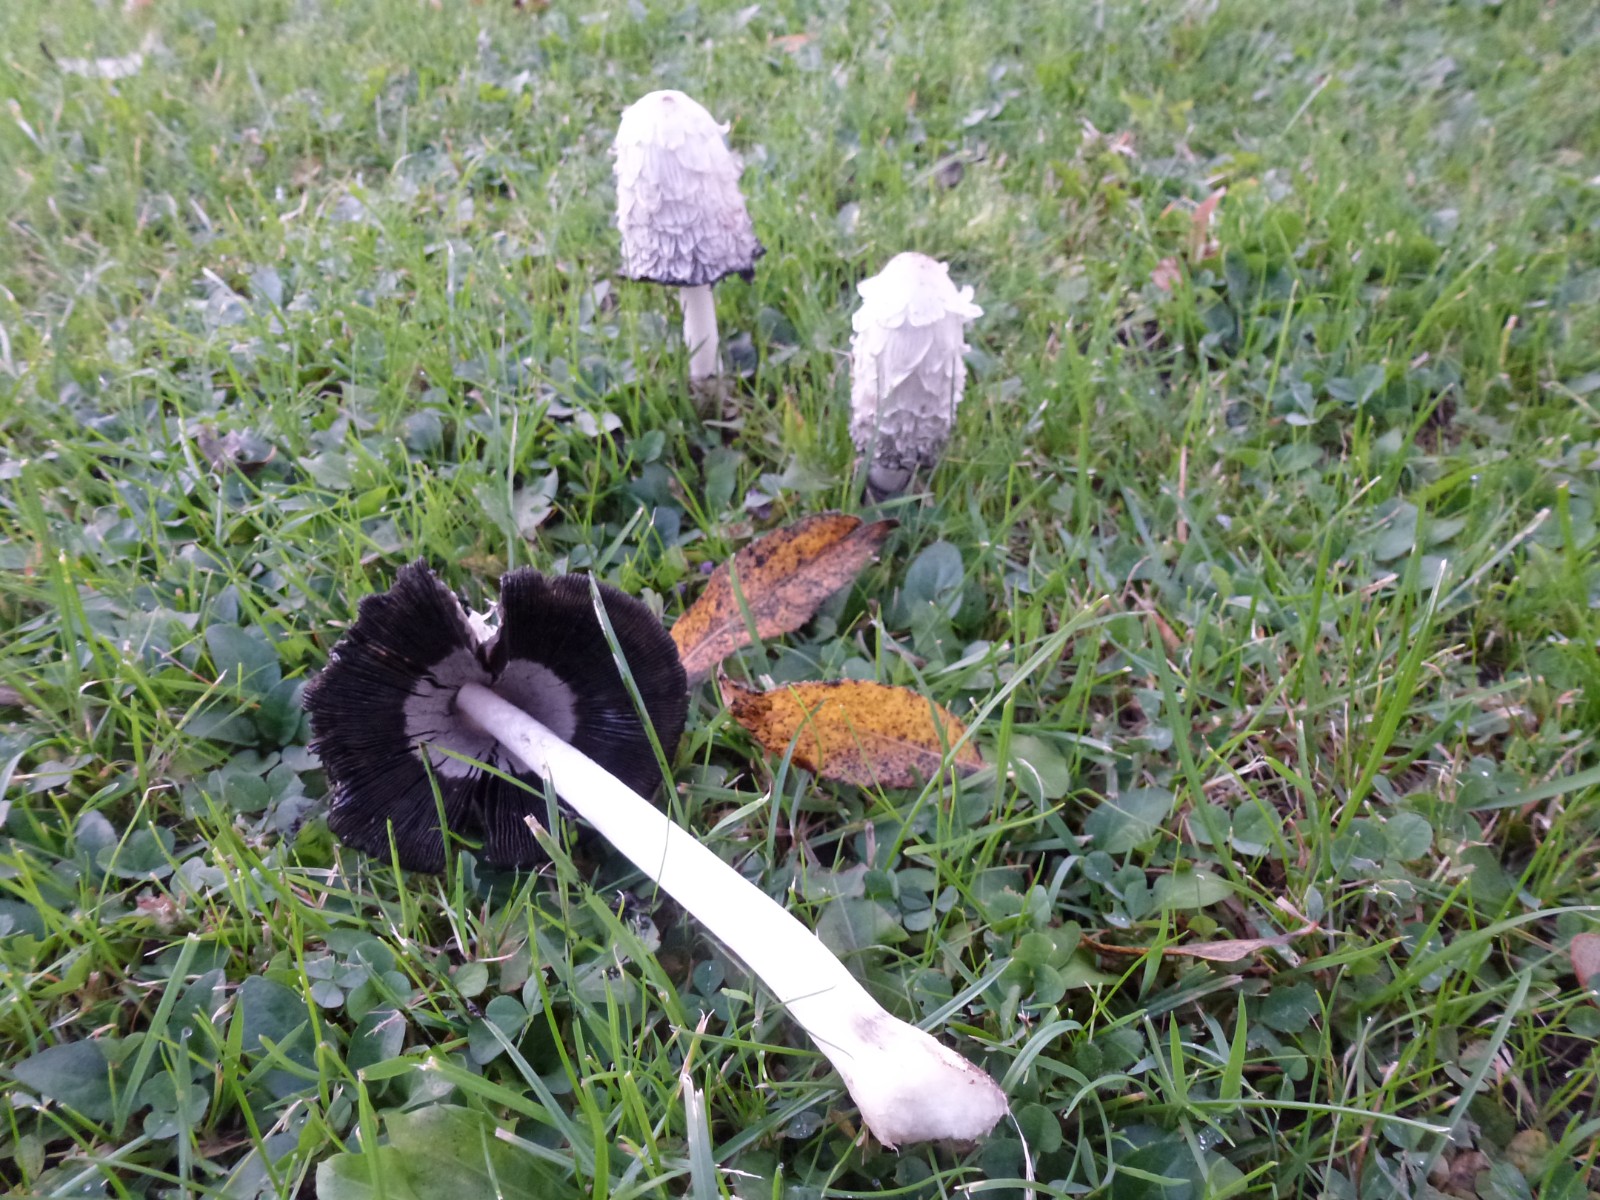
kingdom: Fungi
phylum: Basidiomycota
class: Agaricomycetes
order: Agaricales
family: Agaricaceae
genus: Coprinus
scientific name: Coprinus comatus
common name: stor parykhat
